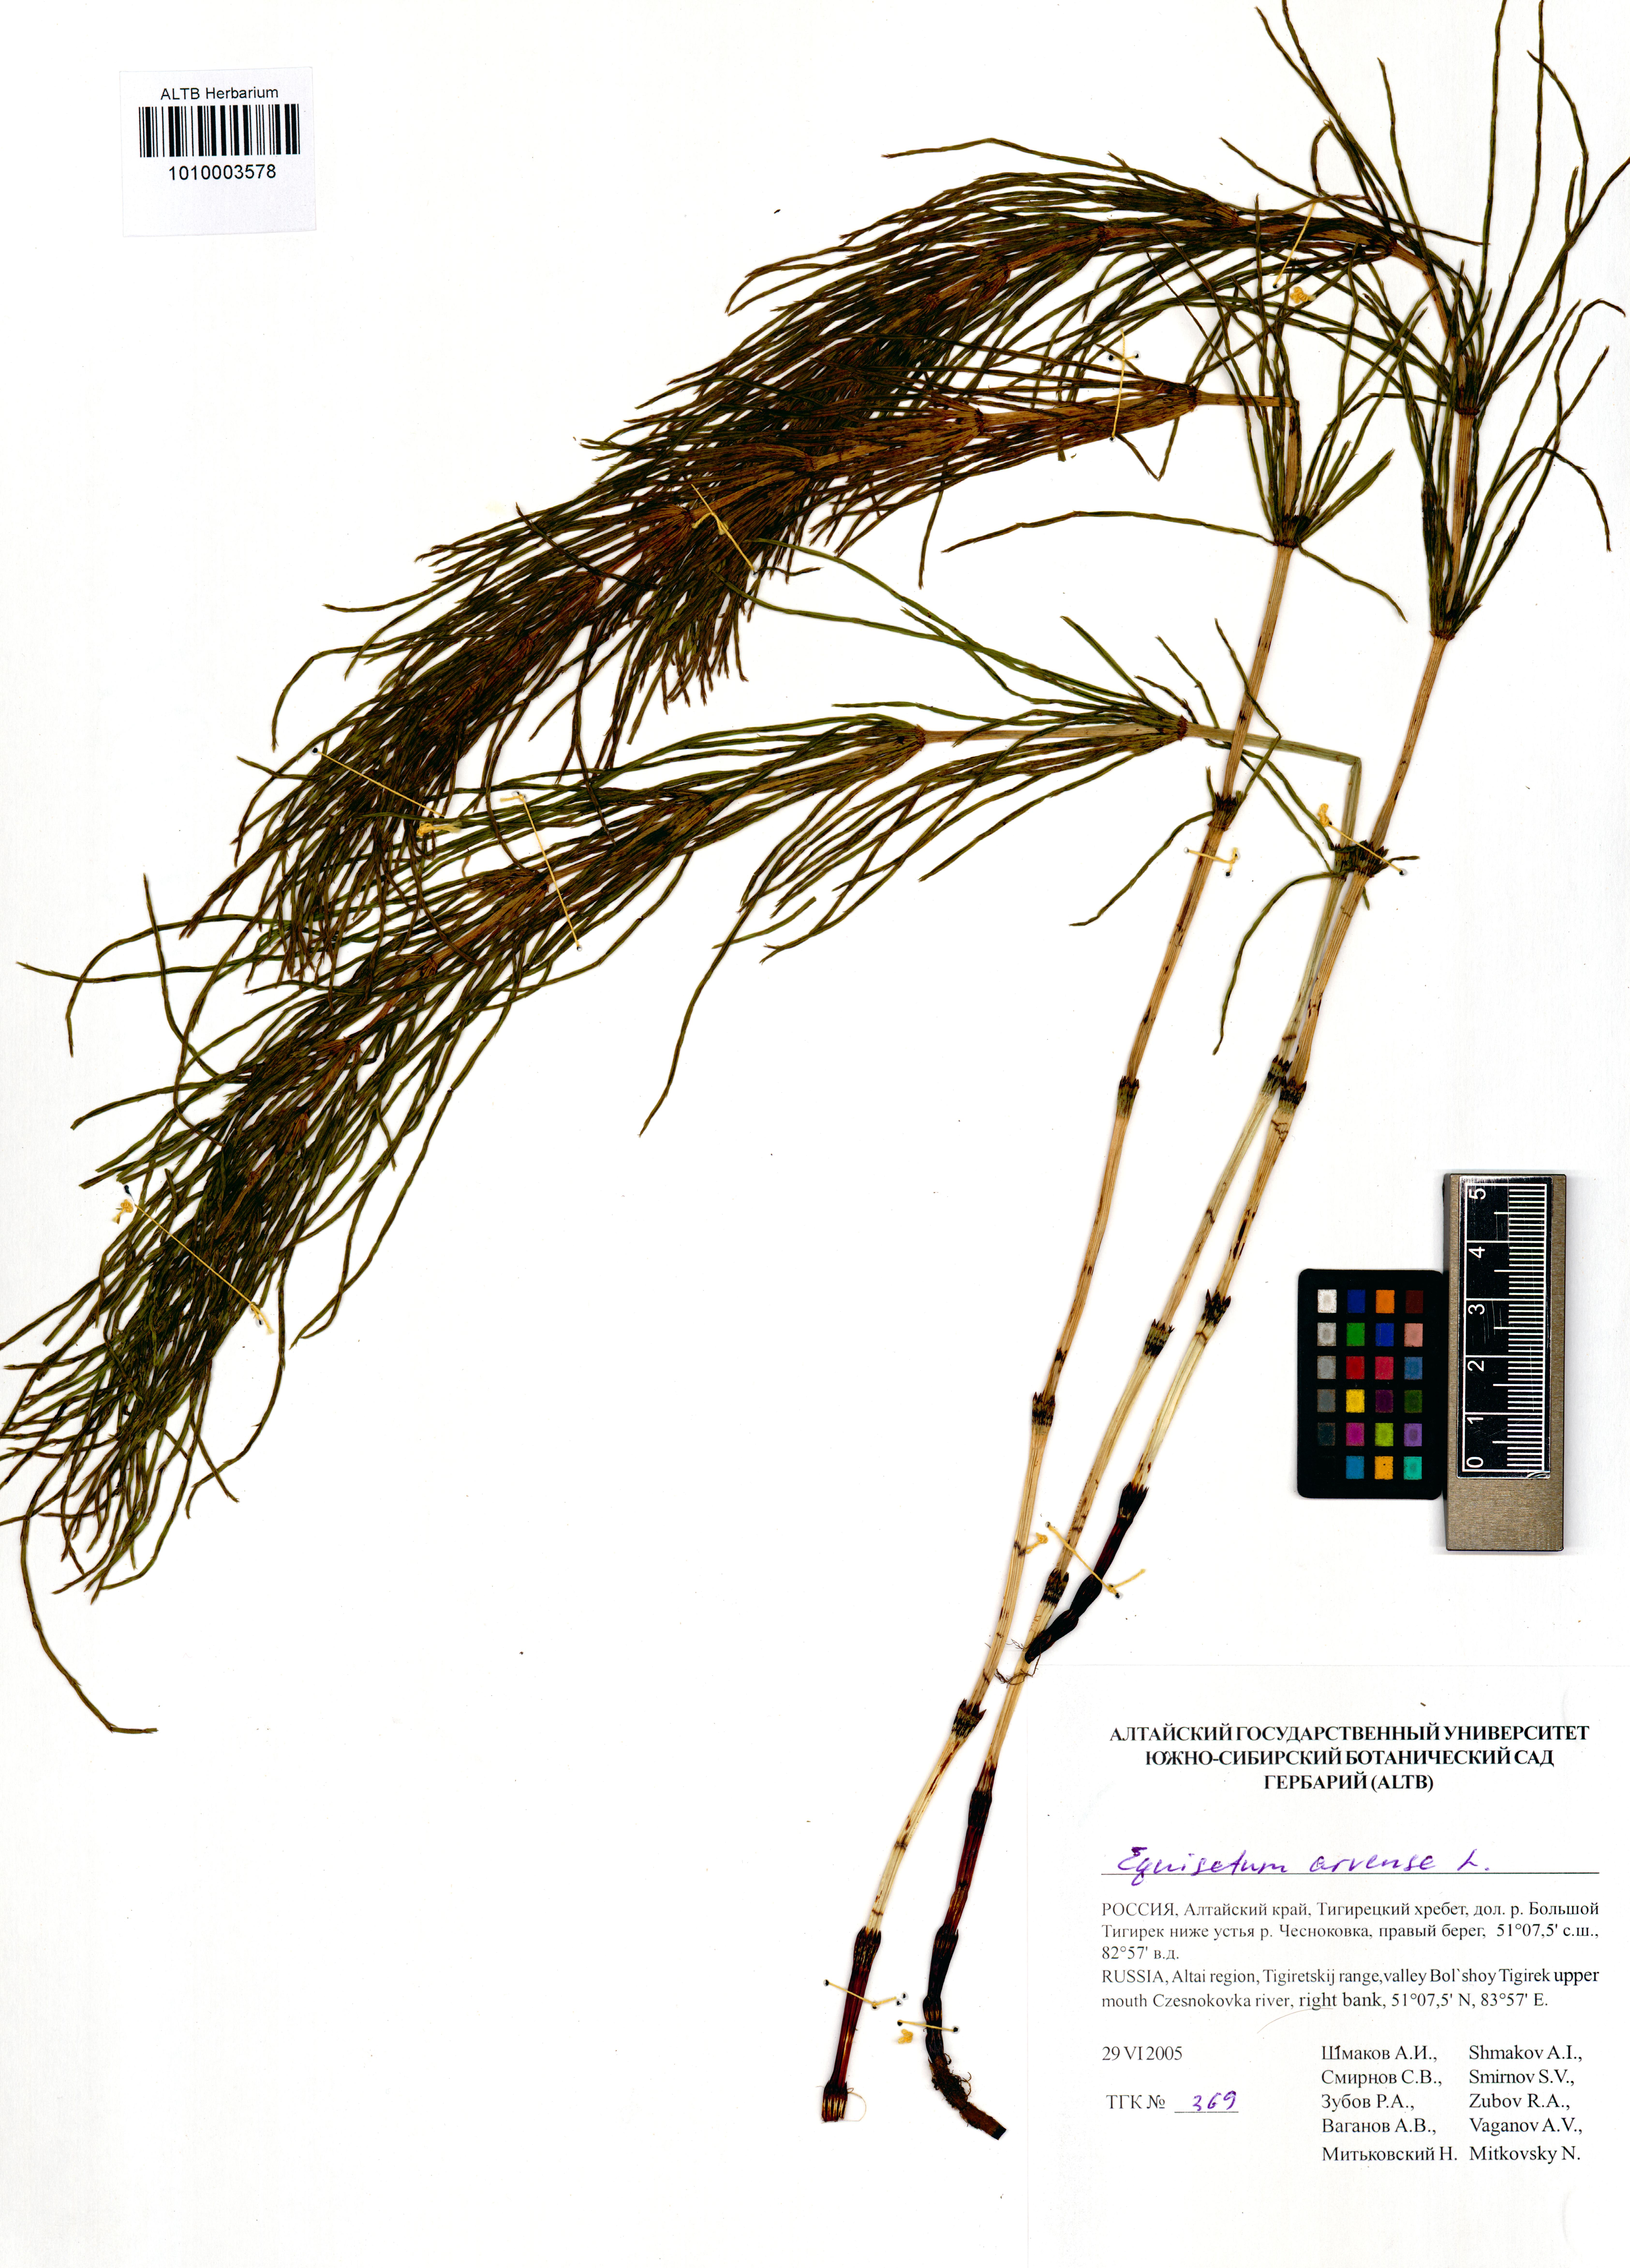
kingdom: Plantae
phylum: Tracheophyta
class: Polypodiopsida
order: Equisetales
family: Equisetaceae
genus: Equisetum
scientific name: Equisetum arvense
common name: Field horsetail
